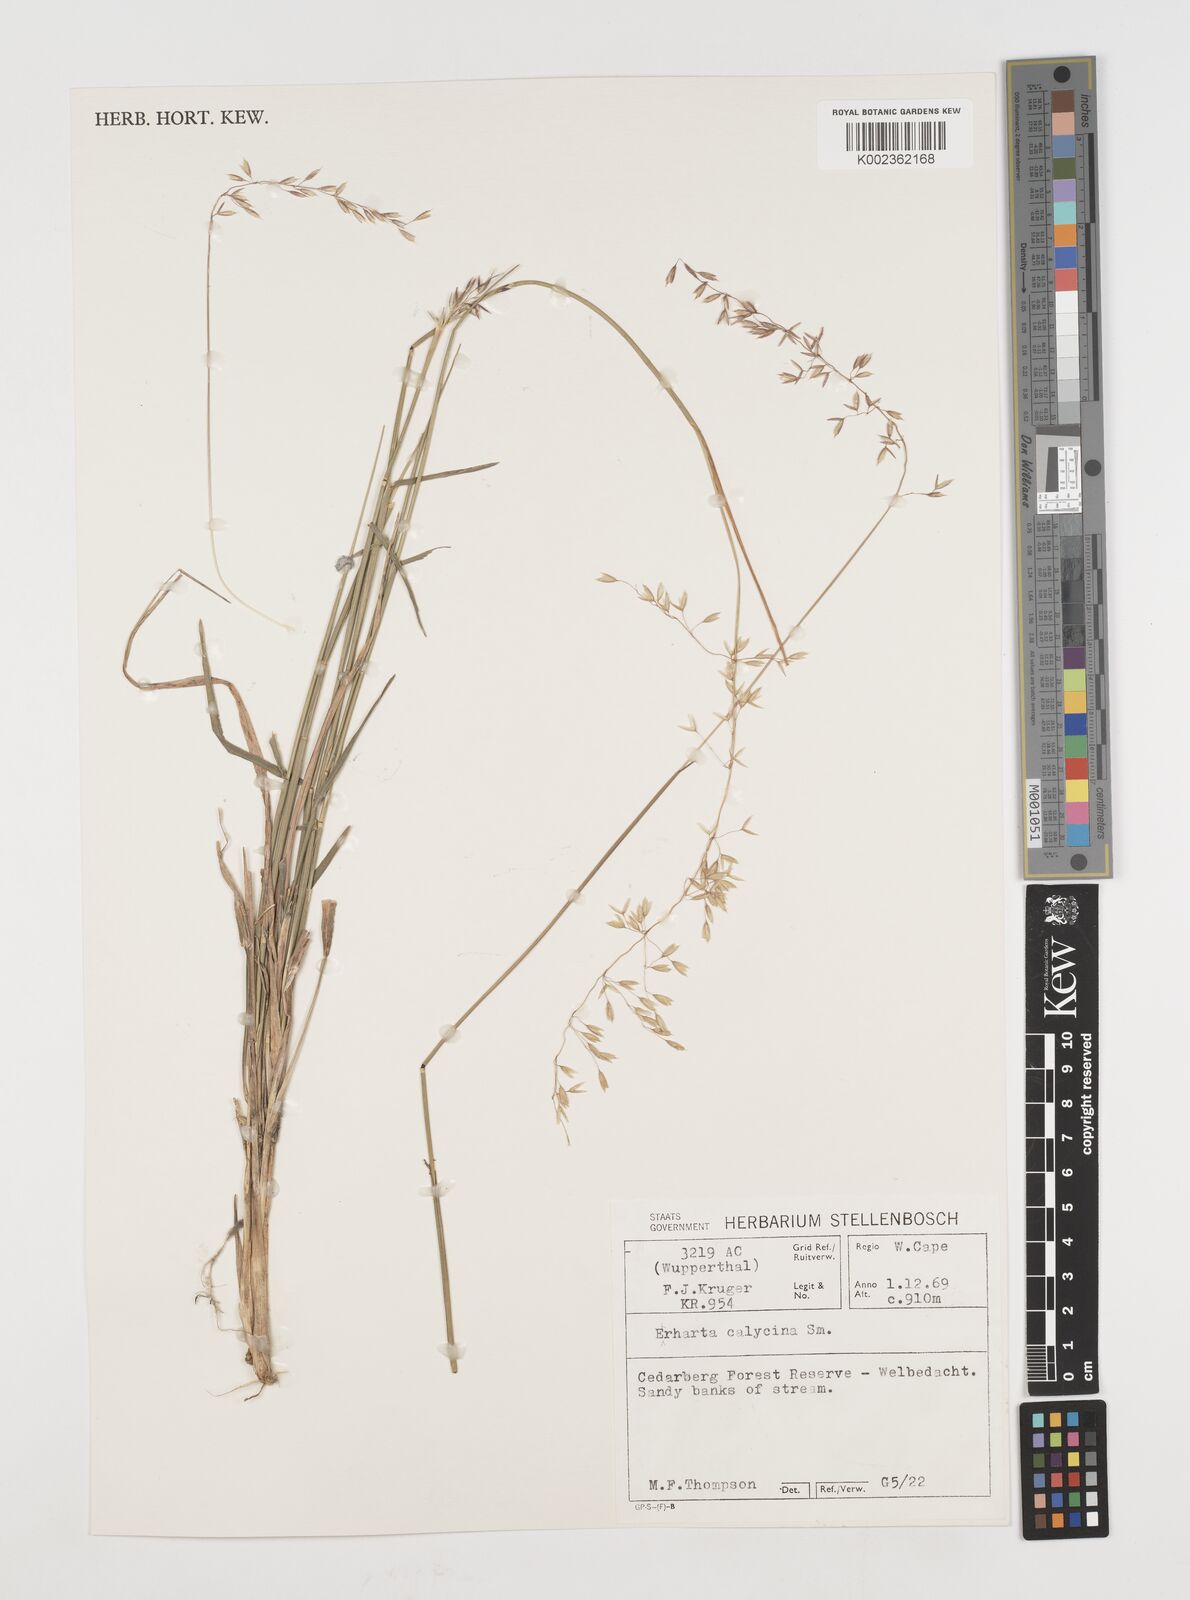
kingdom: Plantae
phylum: Tracheophyta
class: Liliopsida
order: Poales
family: Poaceae
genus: Ehrharta
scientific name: Ehrharta
